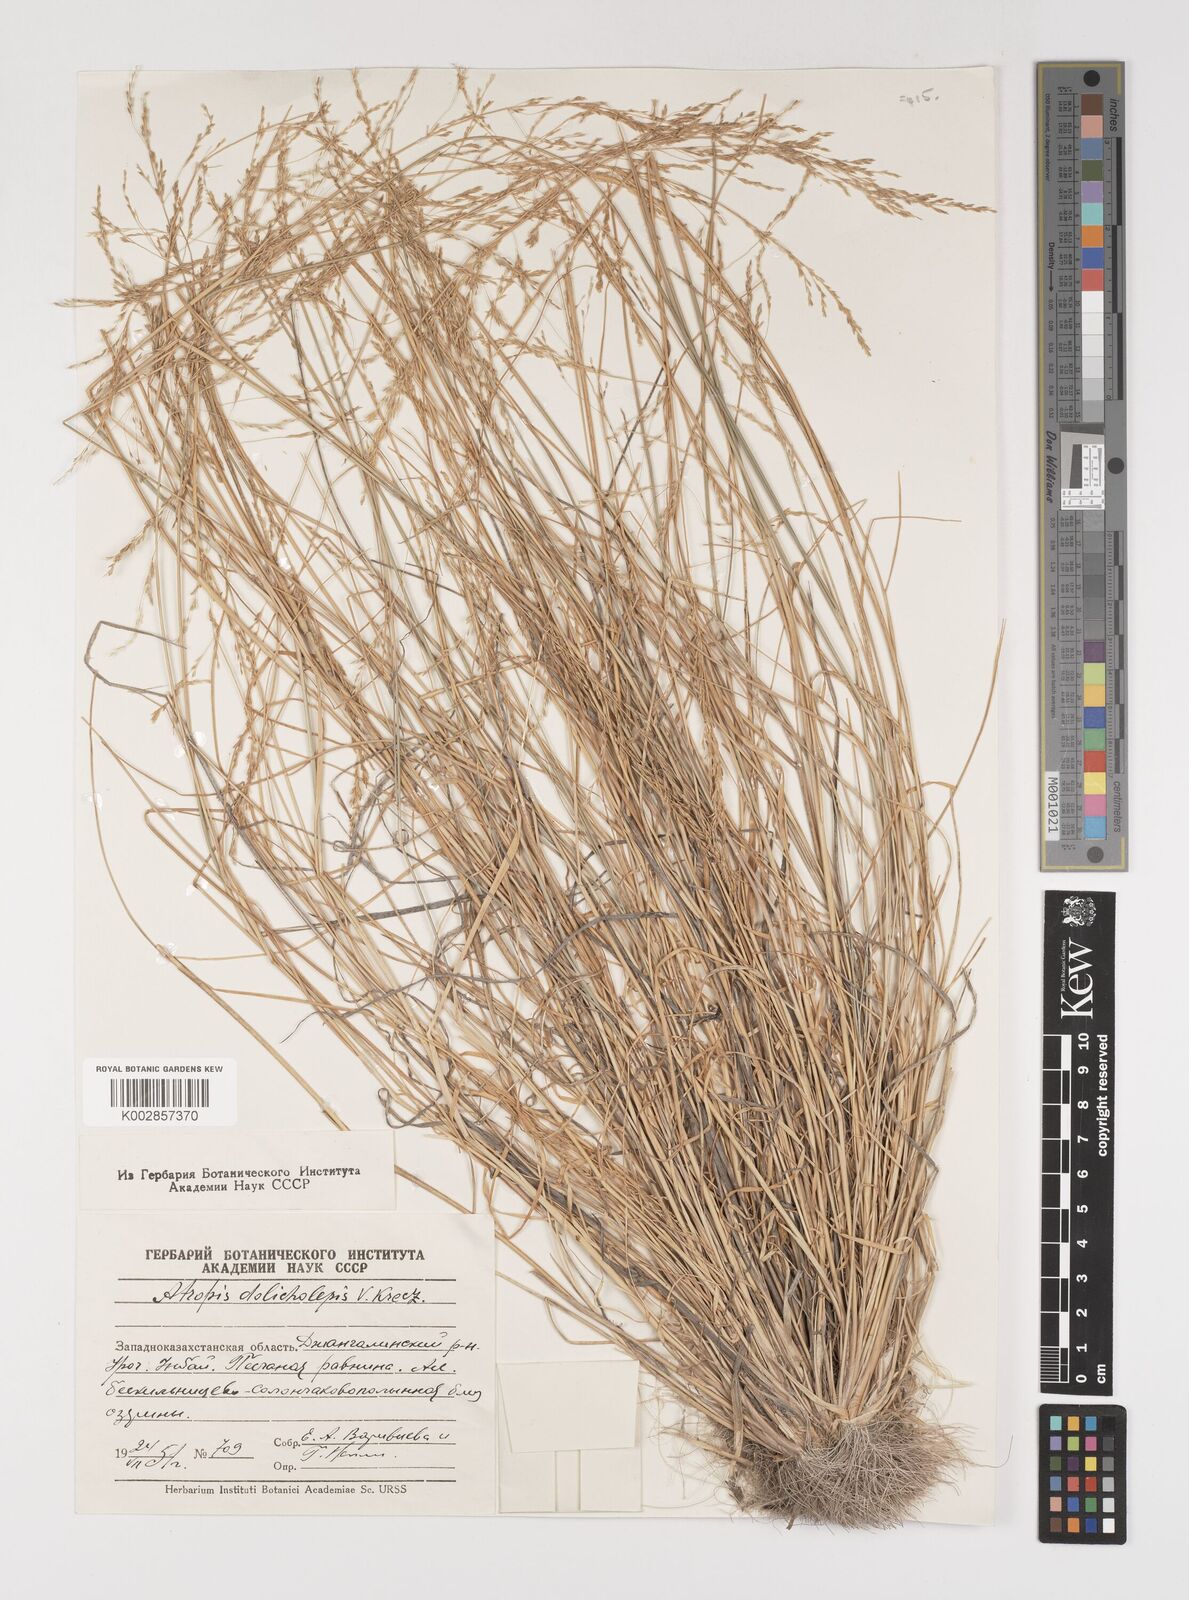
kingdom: Plantae
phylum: Tracheophyta
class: Liliopsida
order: Poales
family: Poaceae
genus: Puccinellia
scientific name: Puccinellia dolicholepis
